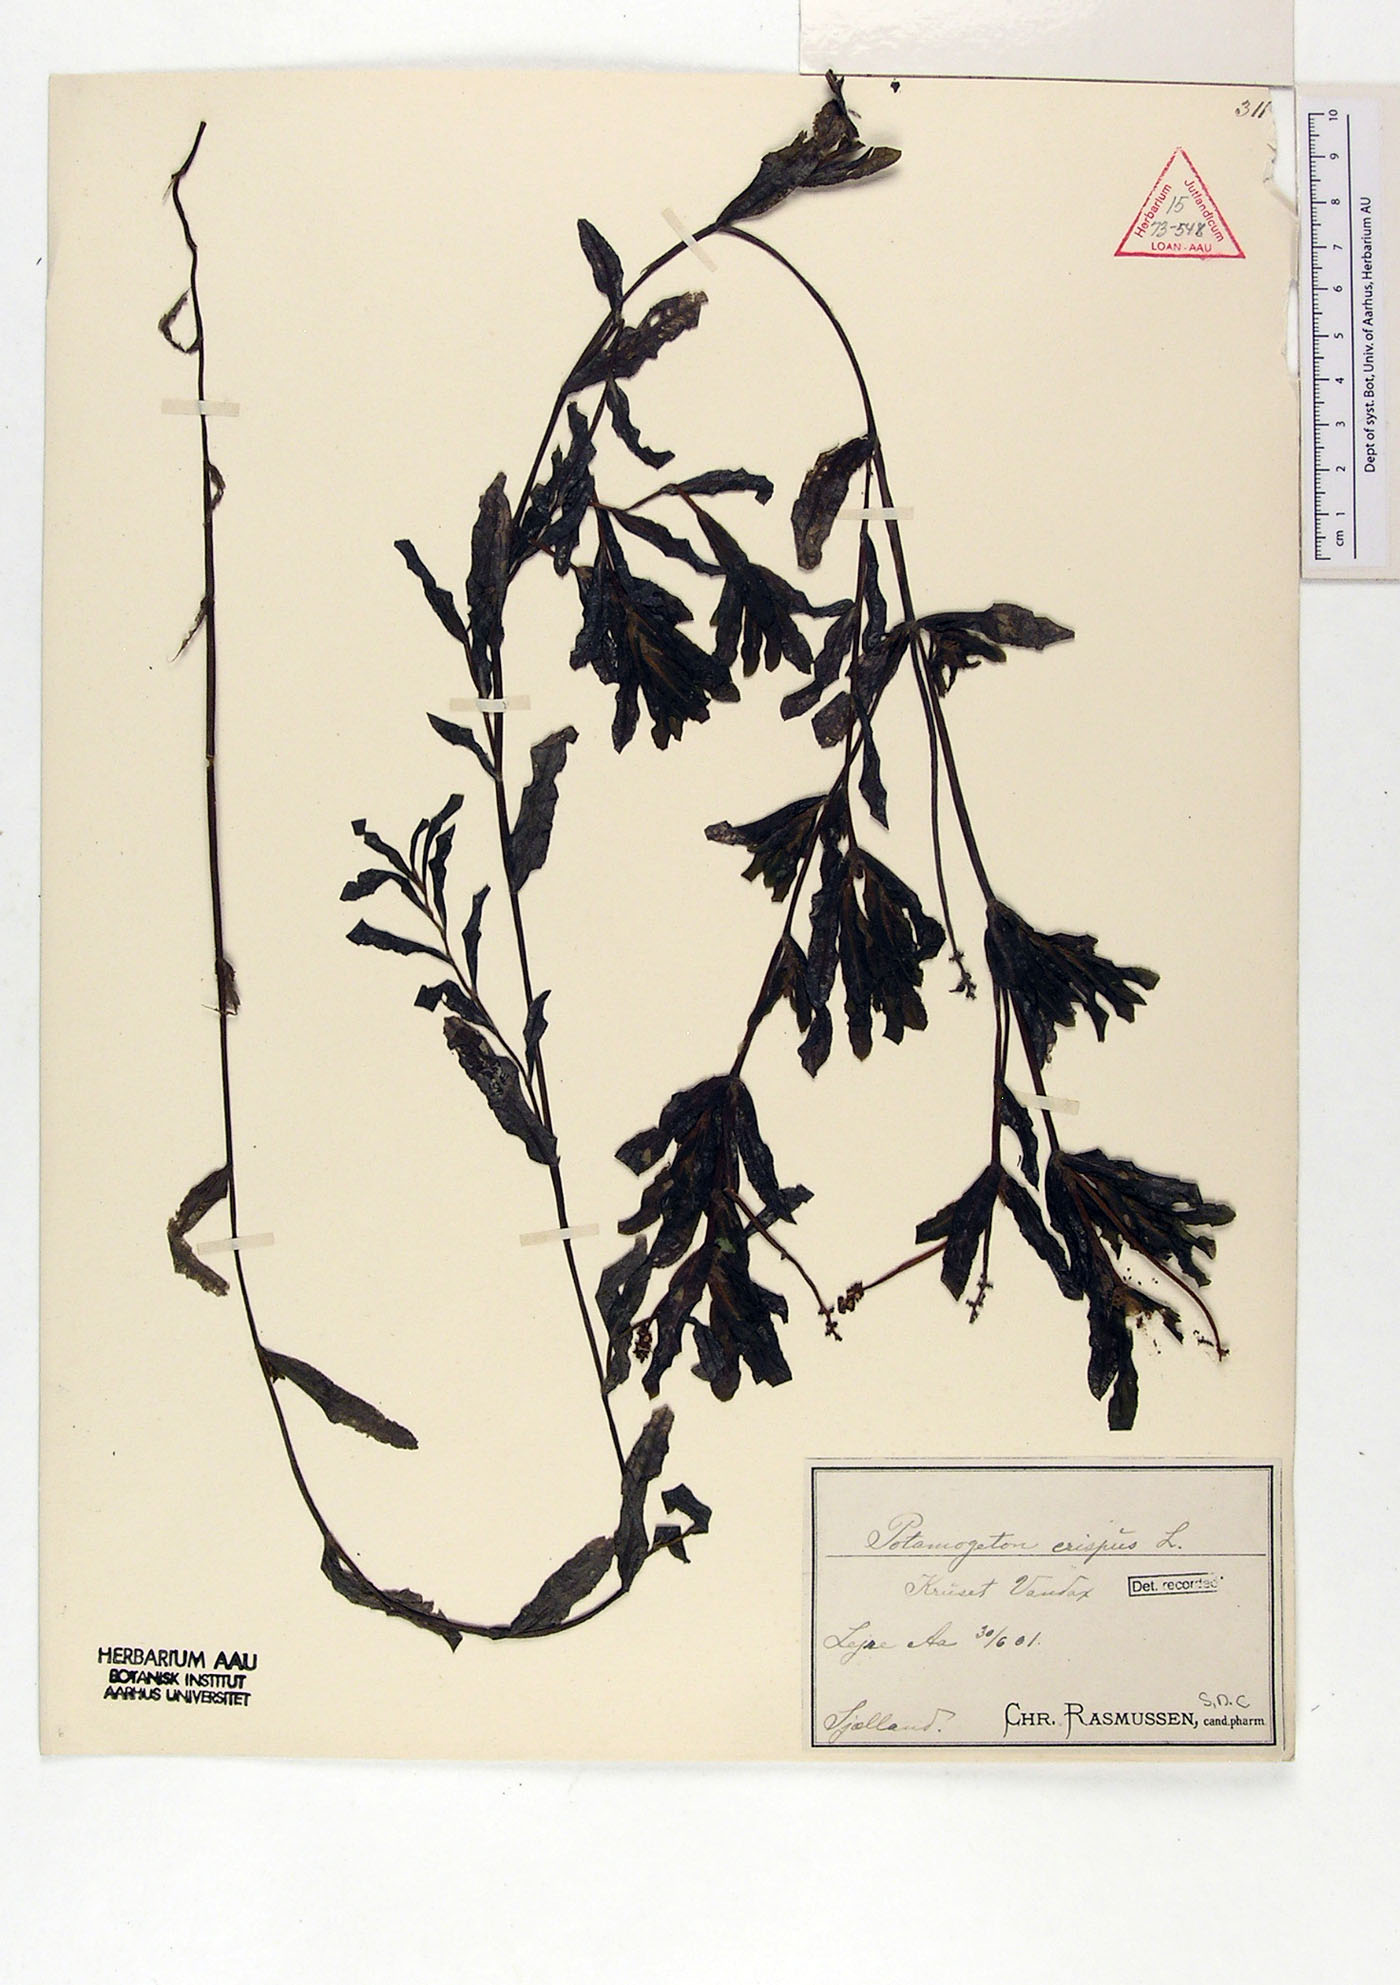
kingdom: Plantae
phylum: Tracheophyta
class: Liliopsida
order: Alismatales
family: Potamogetonaceae
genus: Potamogeton
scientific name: Potamogeton crispus
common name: Curled pondweed
